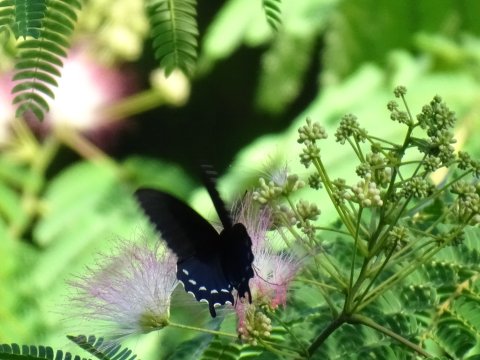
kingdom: Animalia
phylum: Arthropoda
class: Insecta
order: Lepidoptera
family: Papilionidae
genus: Battus
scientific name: Battus philenor
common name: Pipevine Swallowtail
